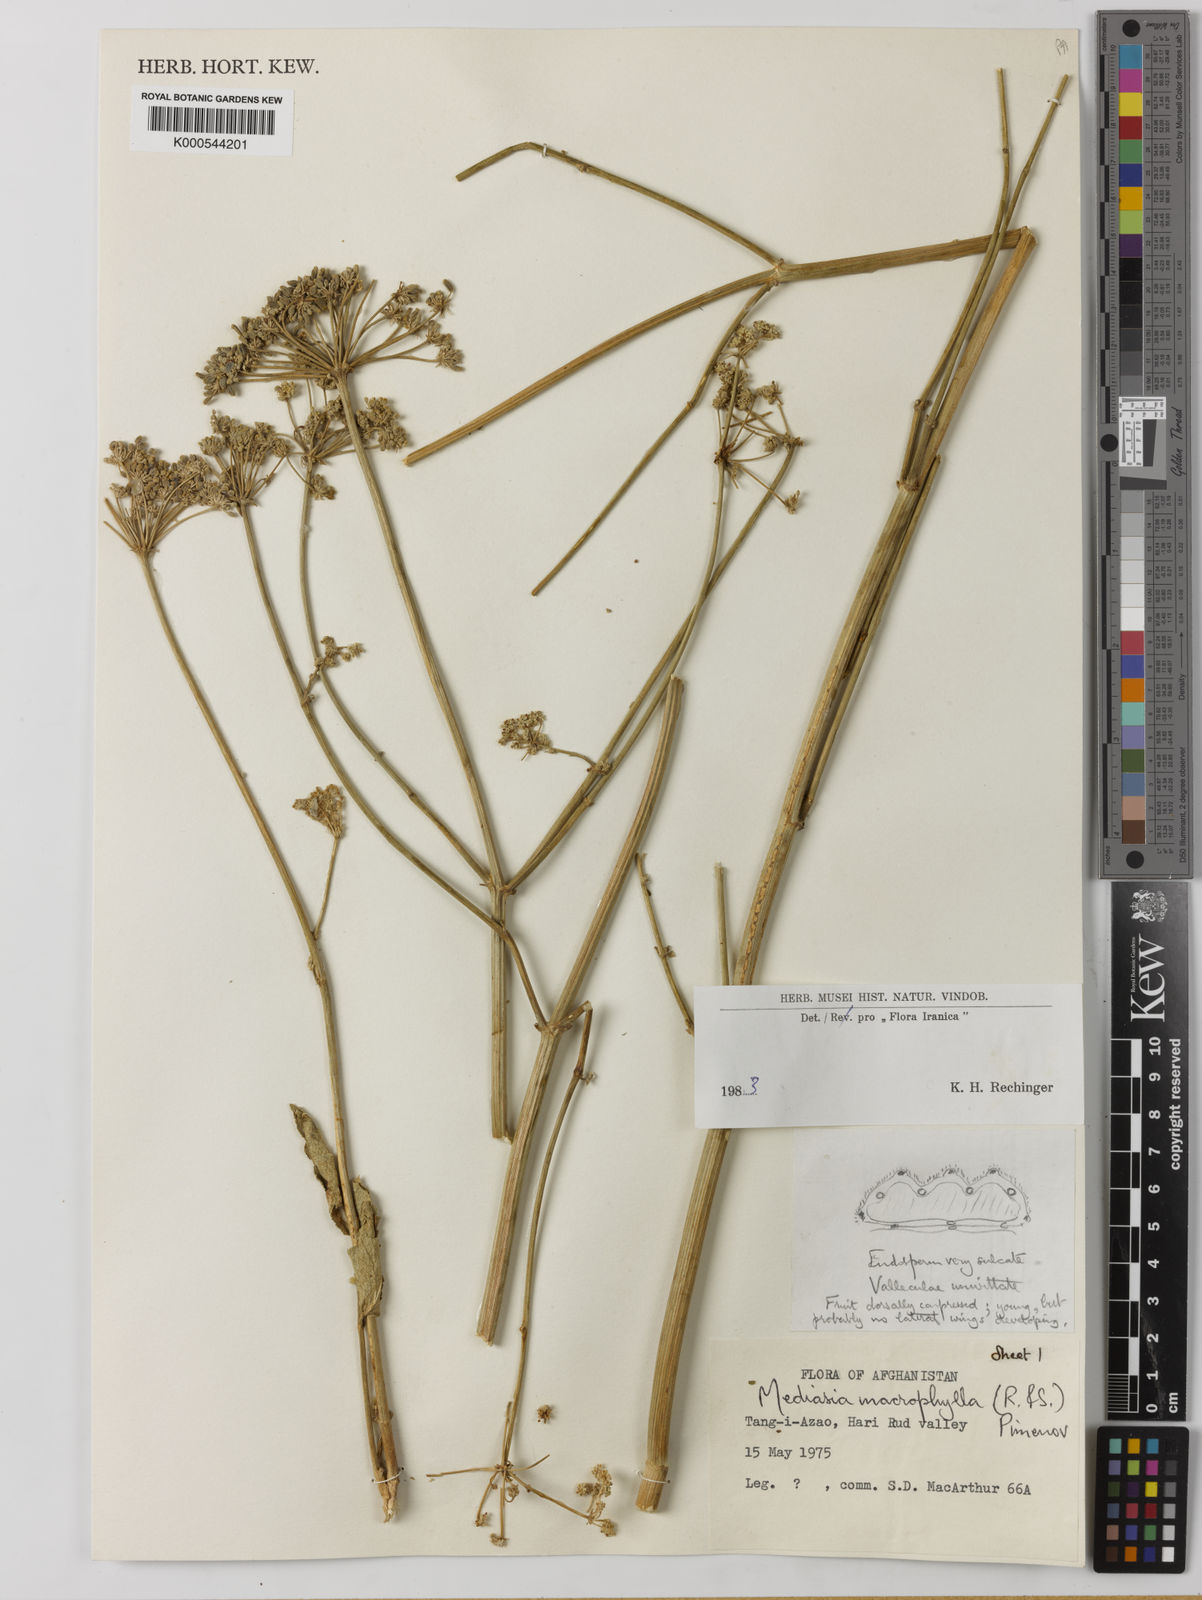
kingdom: Plantae
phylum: Tracheophyta
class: Magnoliopsida
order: Apiales
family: Apiaceae
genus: Mediasia
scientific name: Mediasia macrophylla
